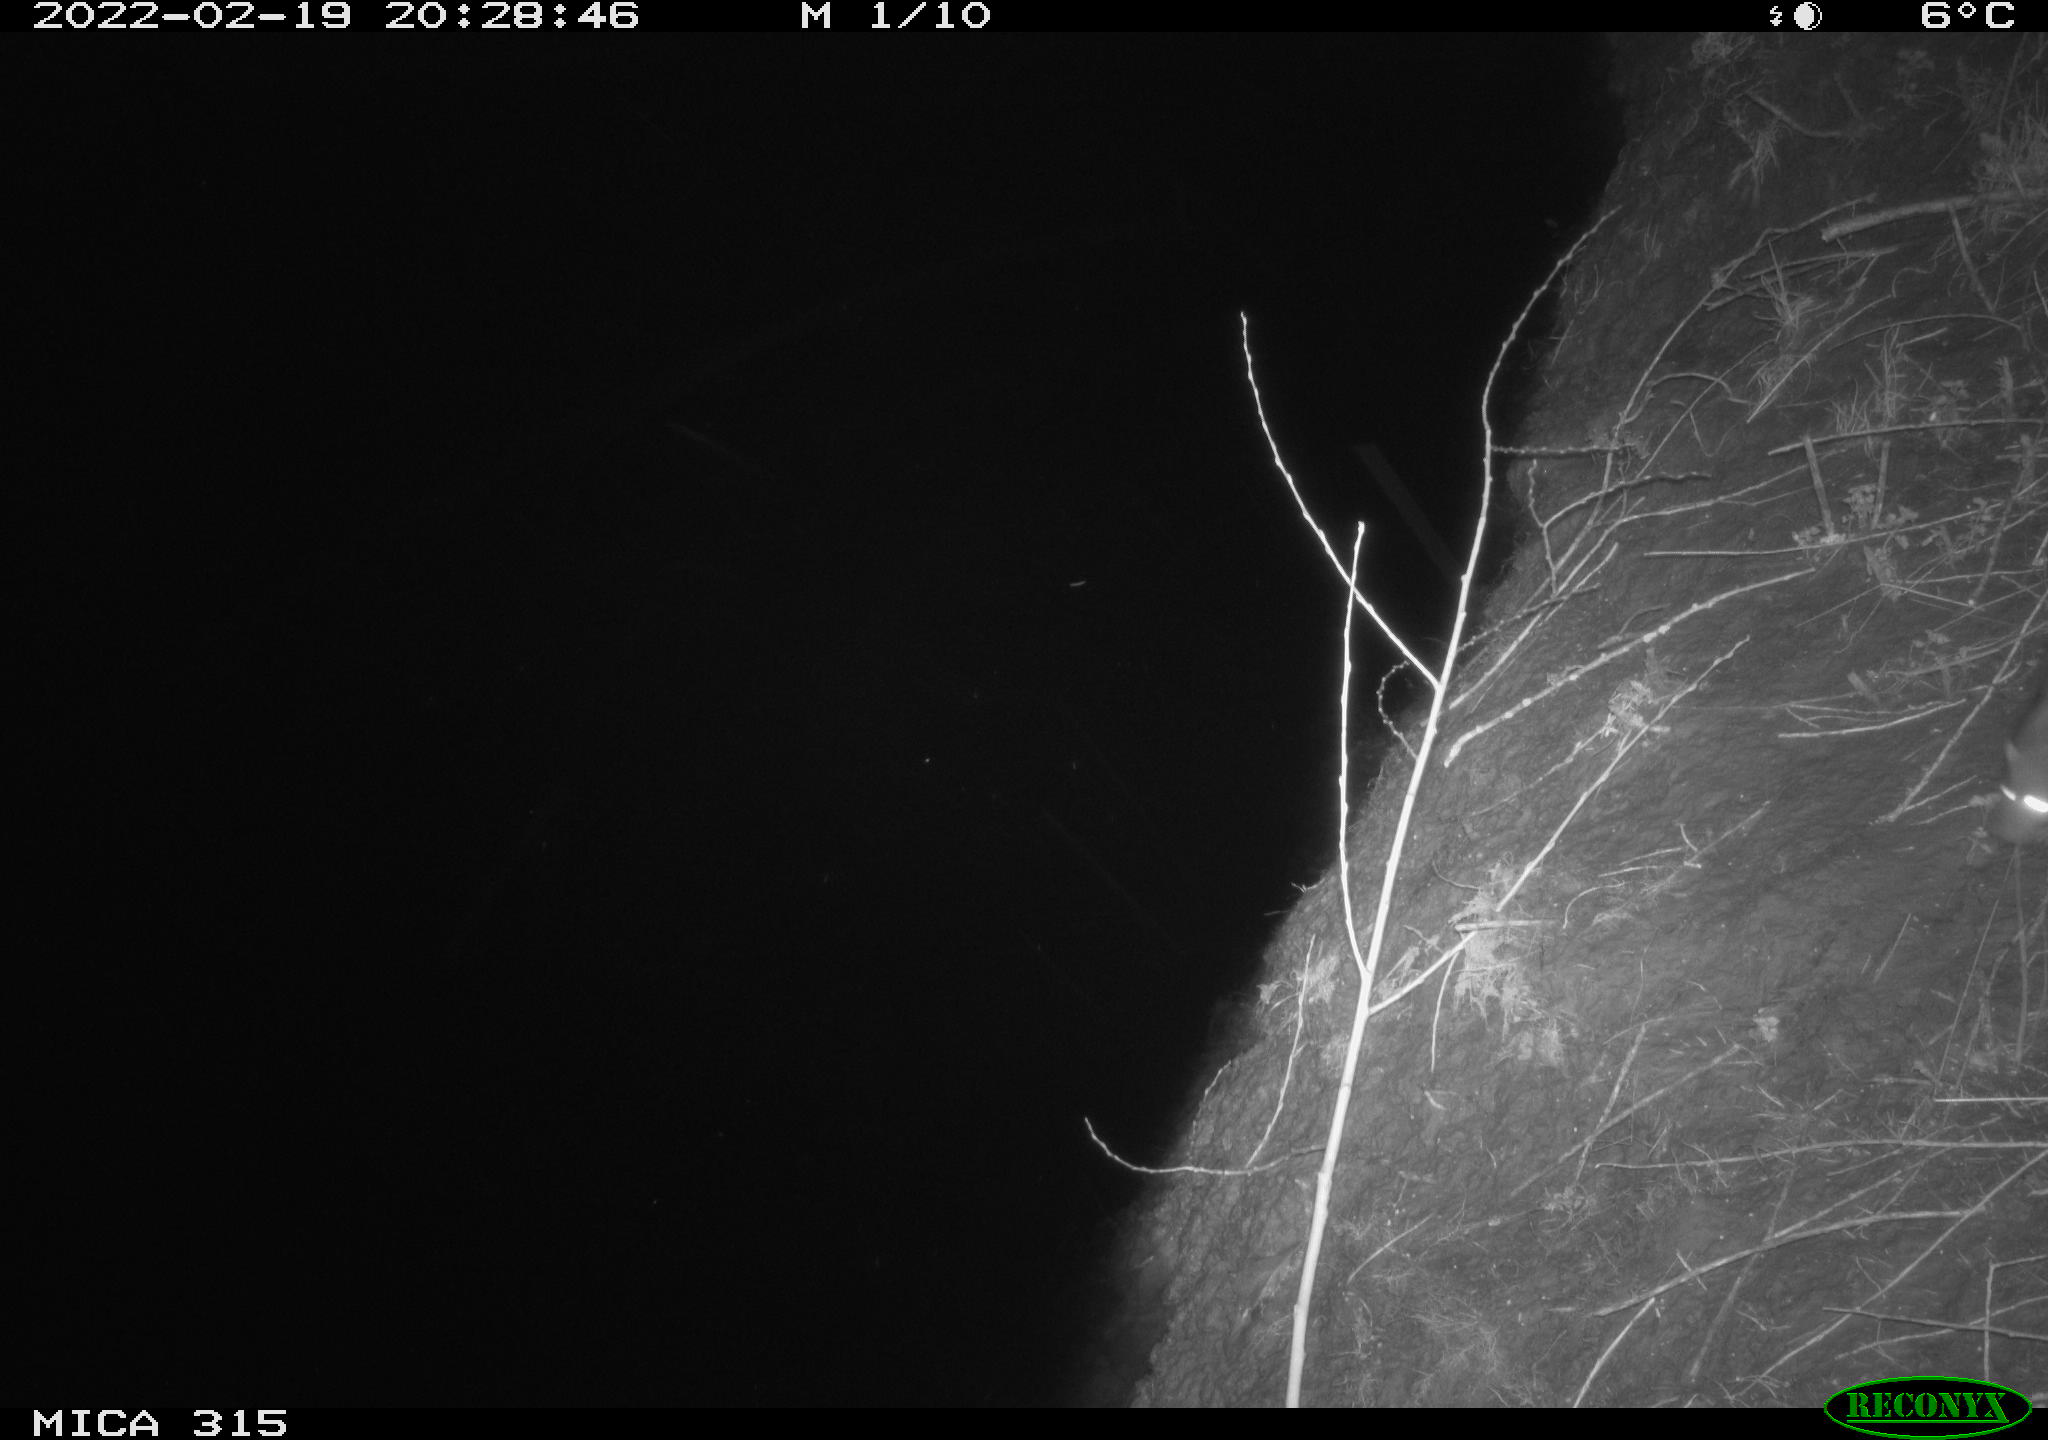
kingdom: Animalia
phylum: Chordata
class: Mammalia
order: Rodentia
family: Muridae
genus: Rattus
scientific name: Rattus norvegicus
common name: Brown rat
